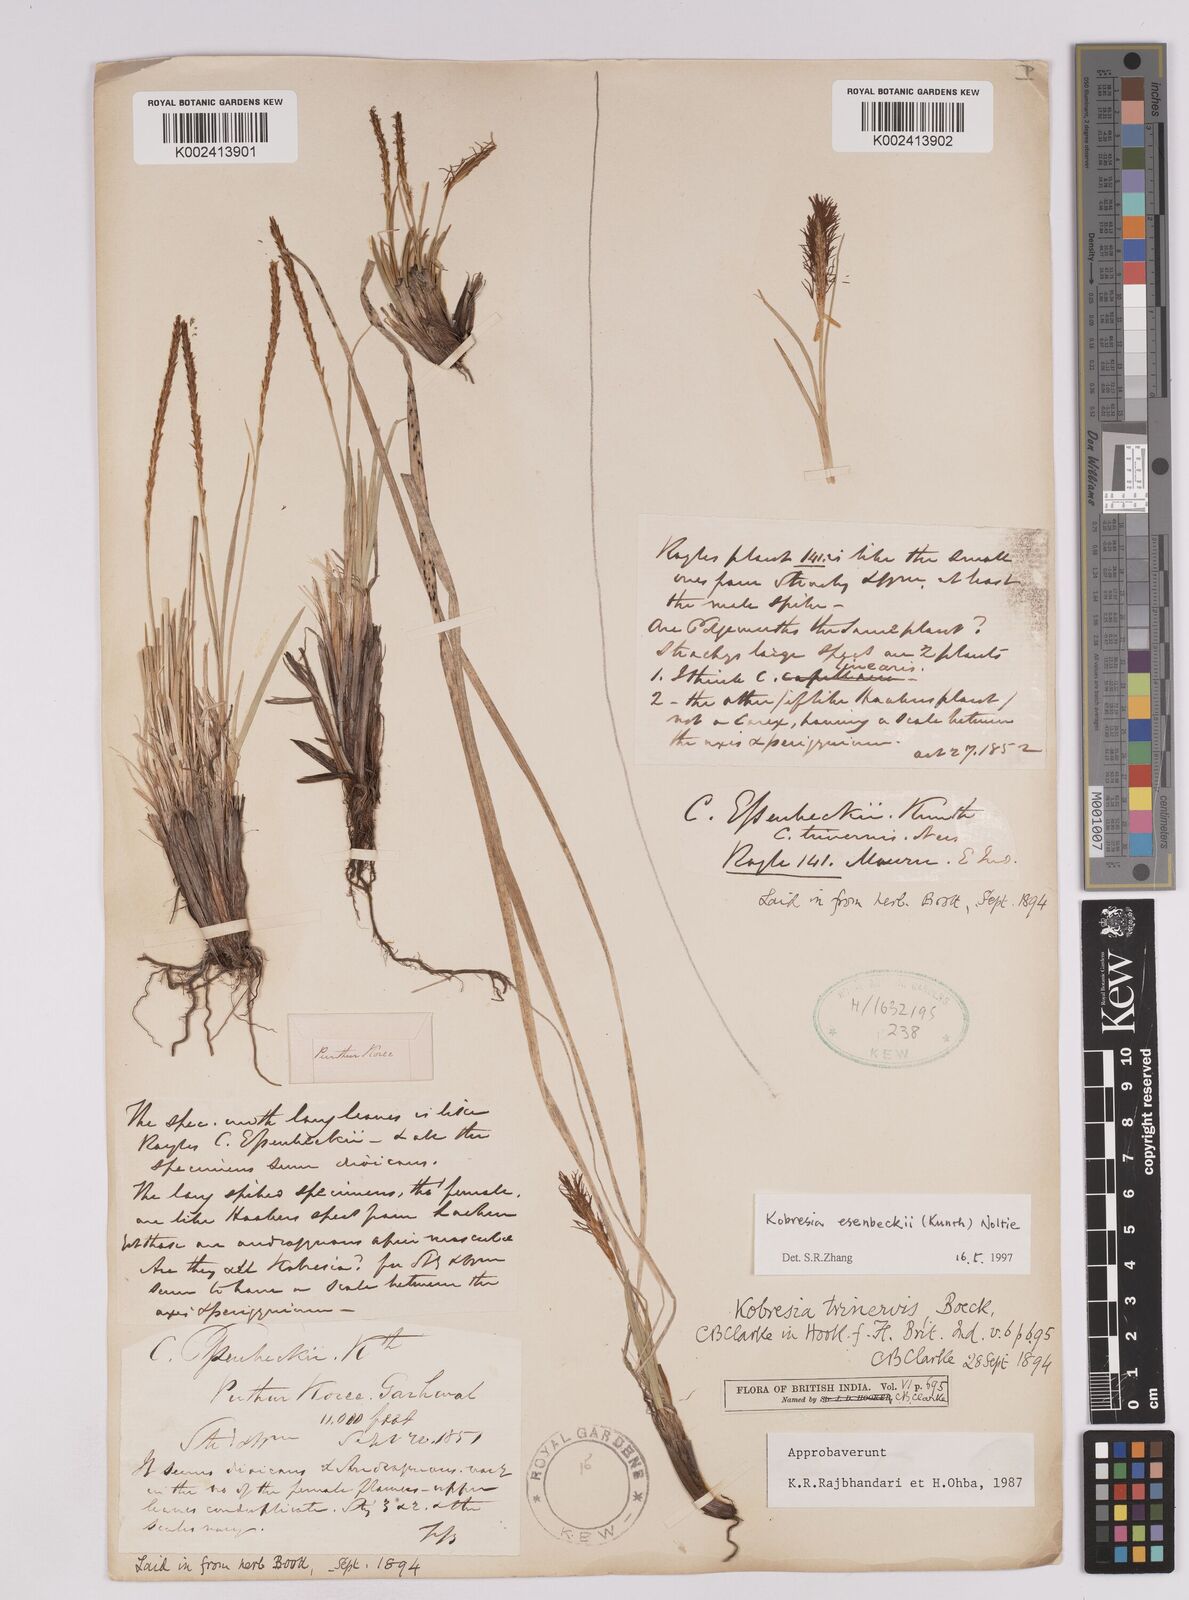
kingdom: Plantae
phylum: Tracheophyta
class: Liliopsida
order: Poales
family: Cyperaceae
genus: Carex
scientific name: Carex esenbeckii
